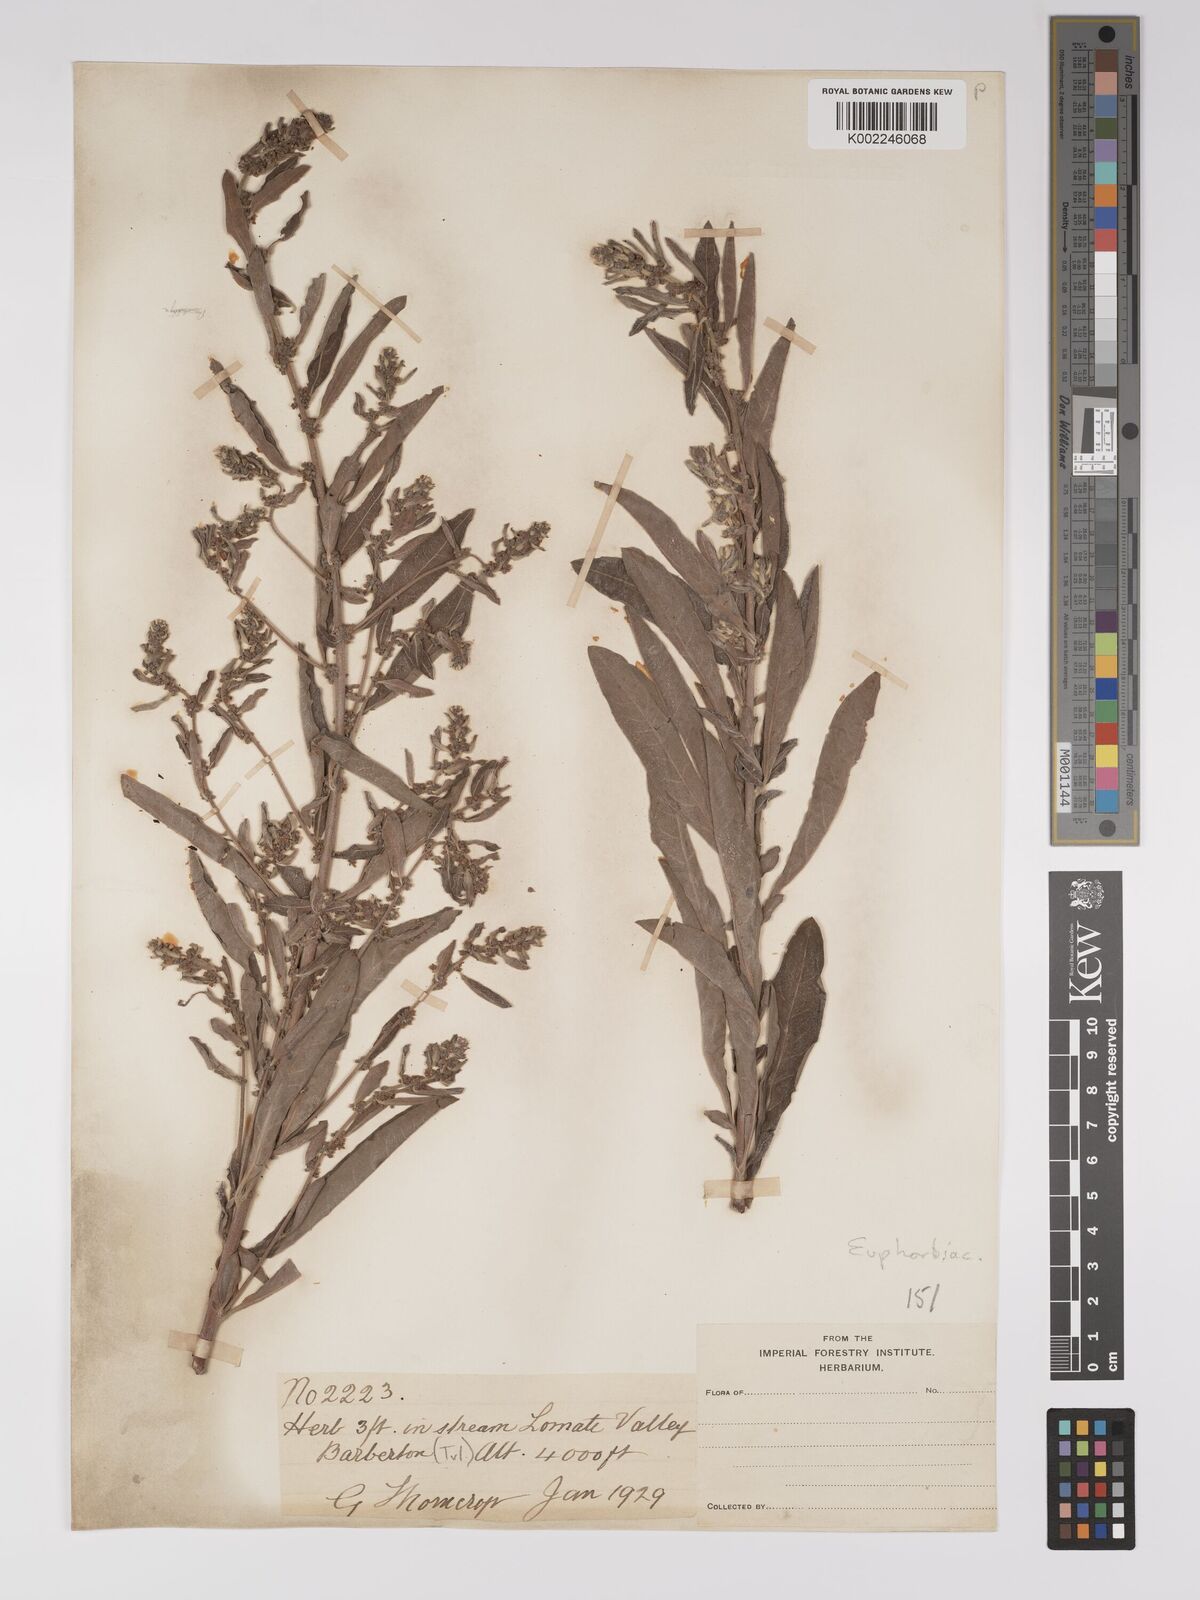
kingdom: Plantae
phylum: Tracheophyta
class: Magnoliopsida
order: Malpighiales
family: Euphorbiaceae
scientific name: Euphorbiaceae
